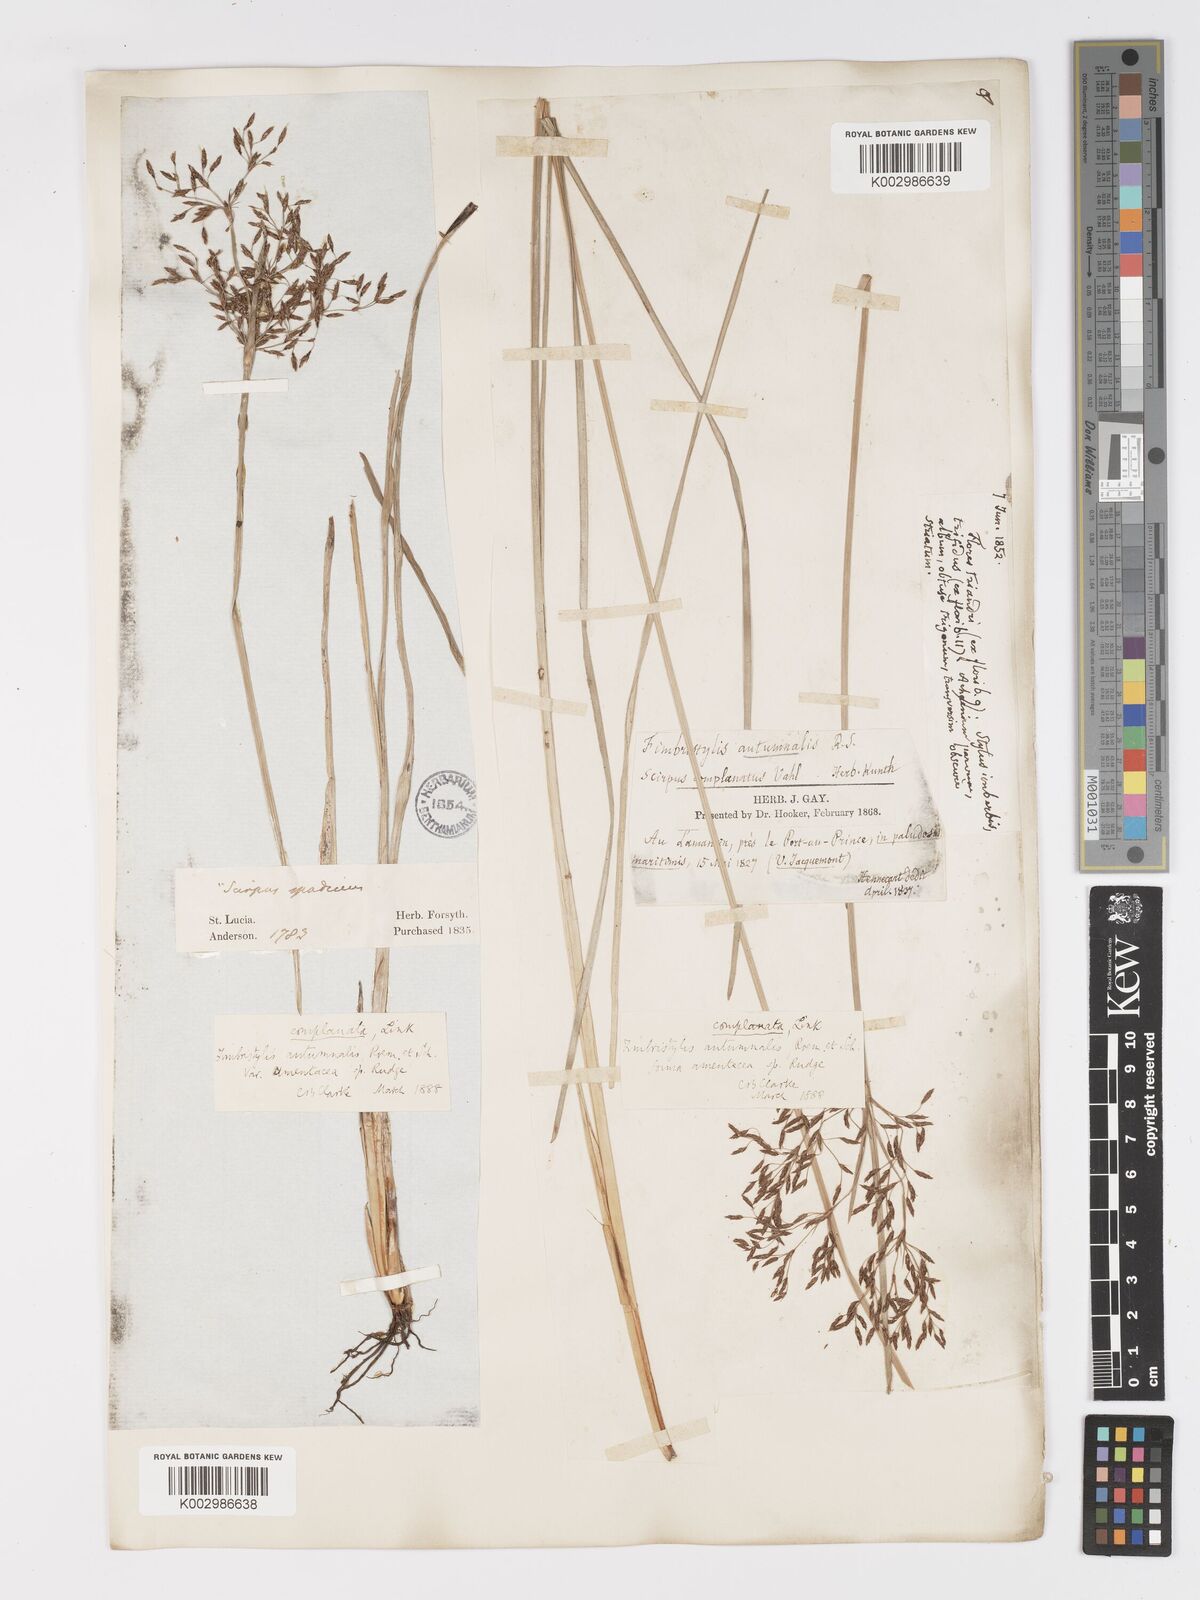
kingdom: Plantae
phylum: Tracheophyta
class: Liliopsida
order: Poales
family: Cyperaceae
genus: Fimbristylis
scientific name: Fimbristylis complanata
